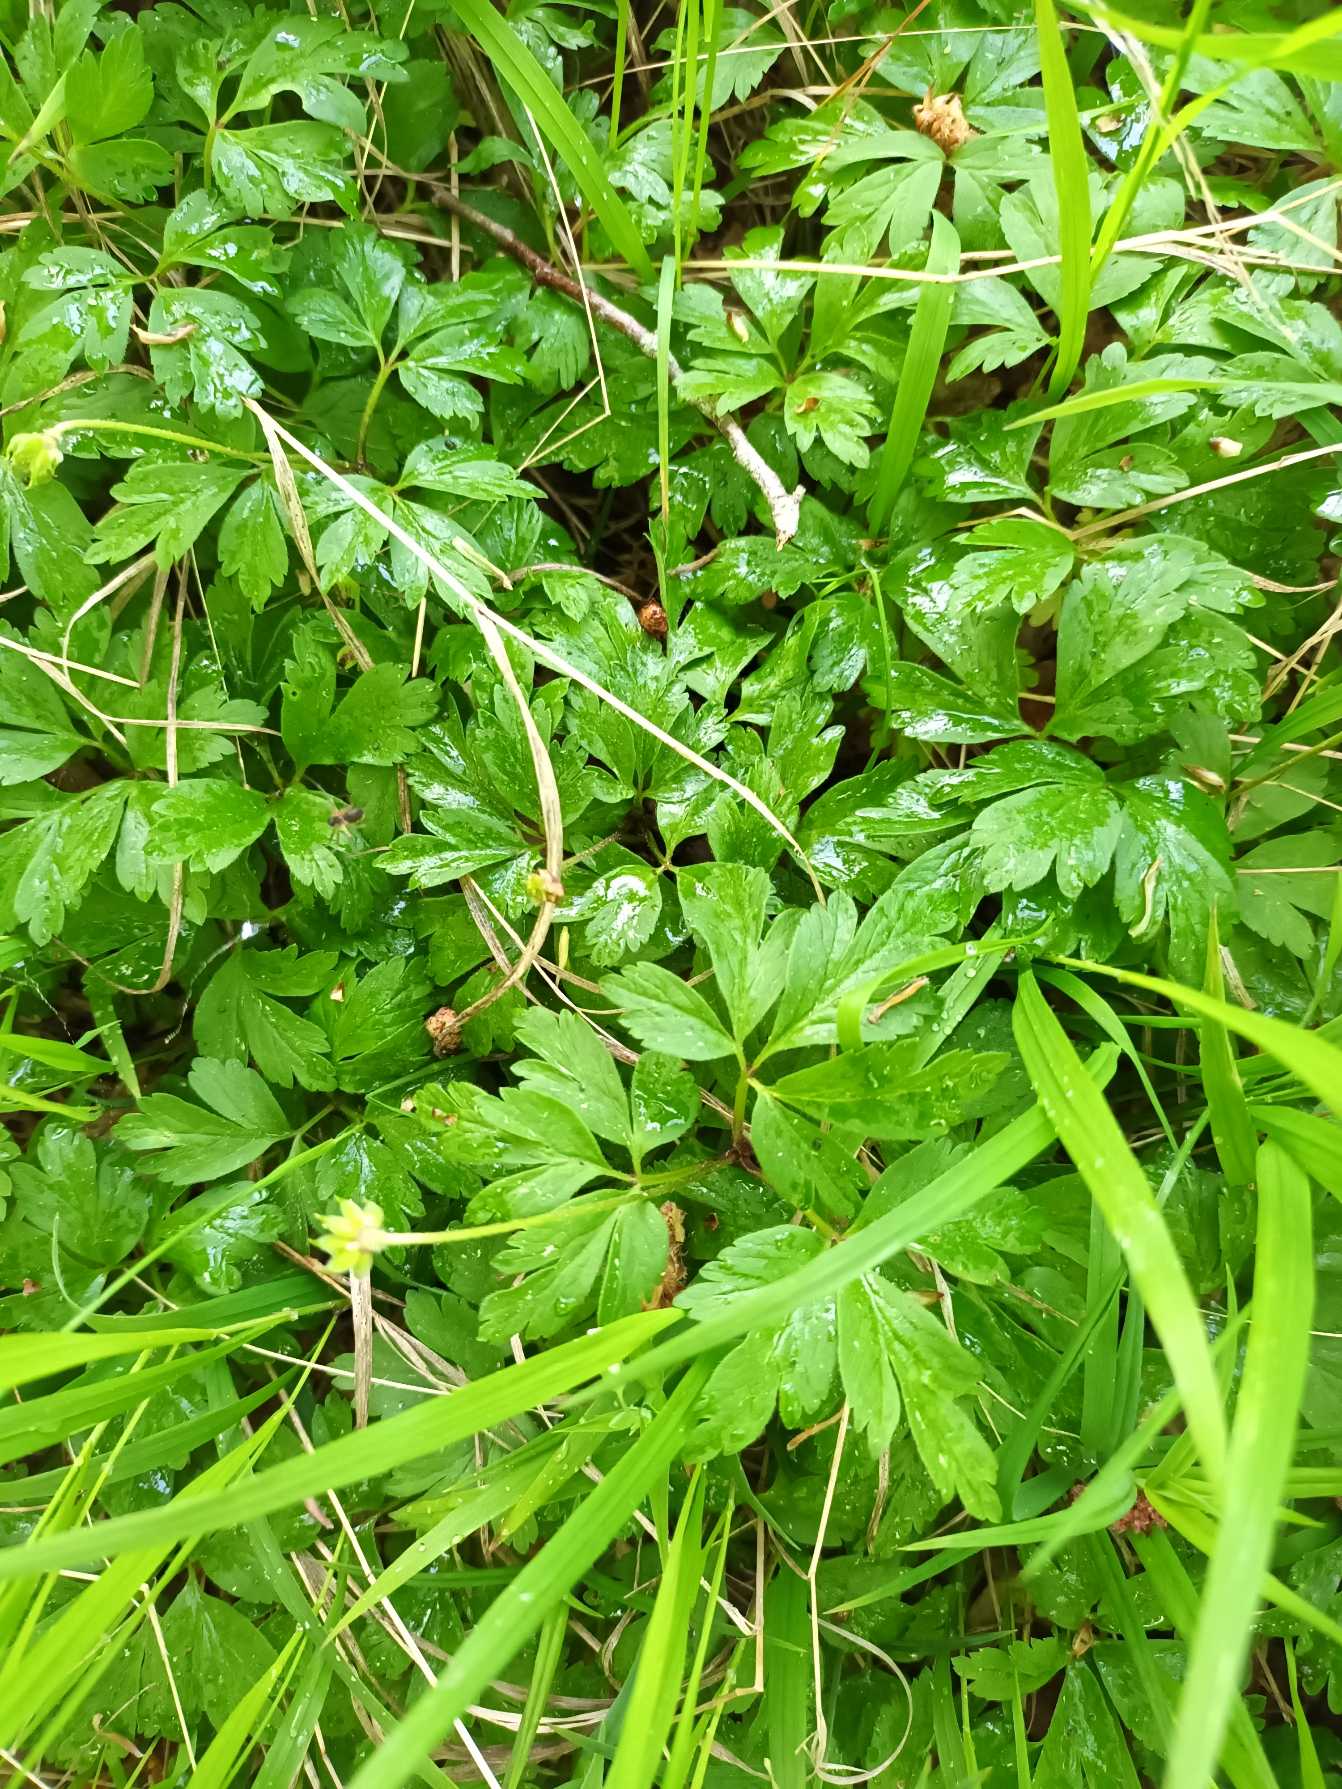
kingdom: Plantae
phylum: Tracheophyta
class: Magnoliopsida
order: Ranunculales
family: Ranunculaceae
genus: Anemone
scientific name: Anemone nemorosa
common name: Hvid anemone
